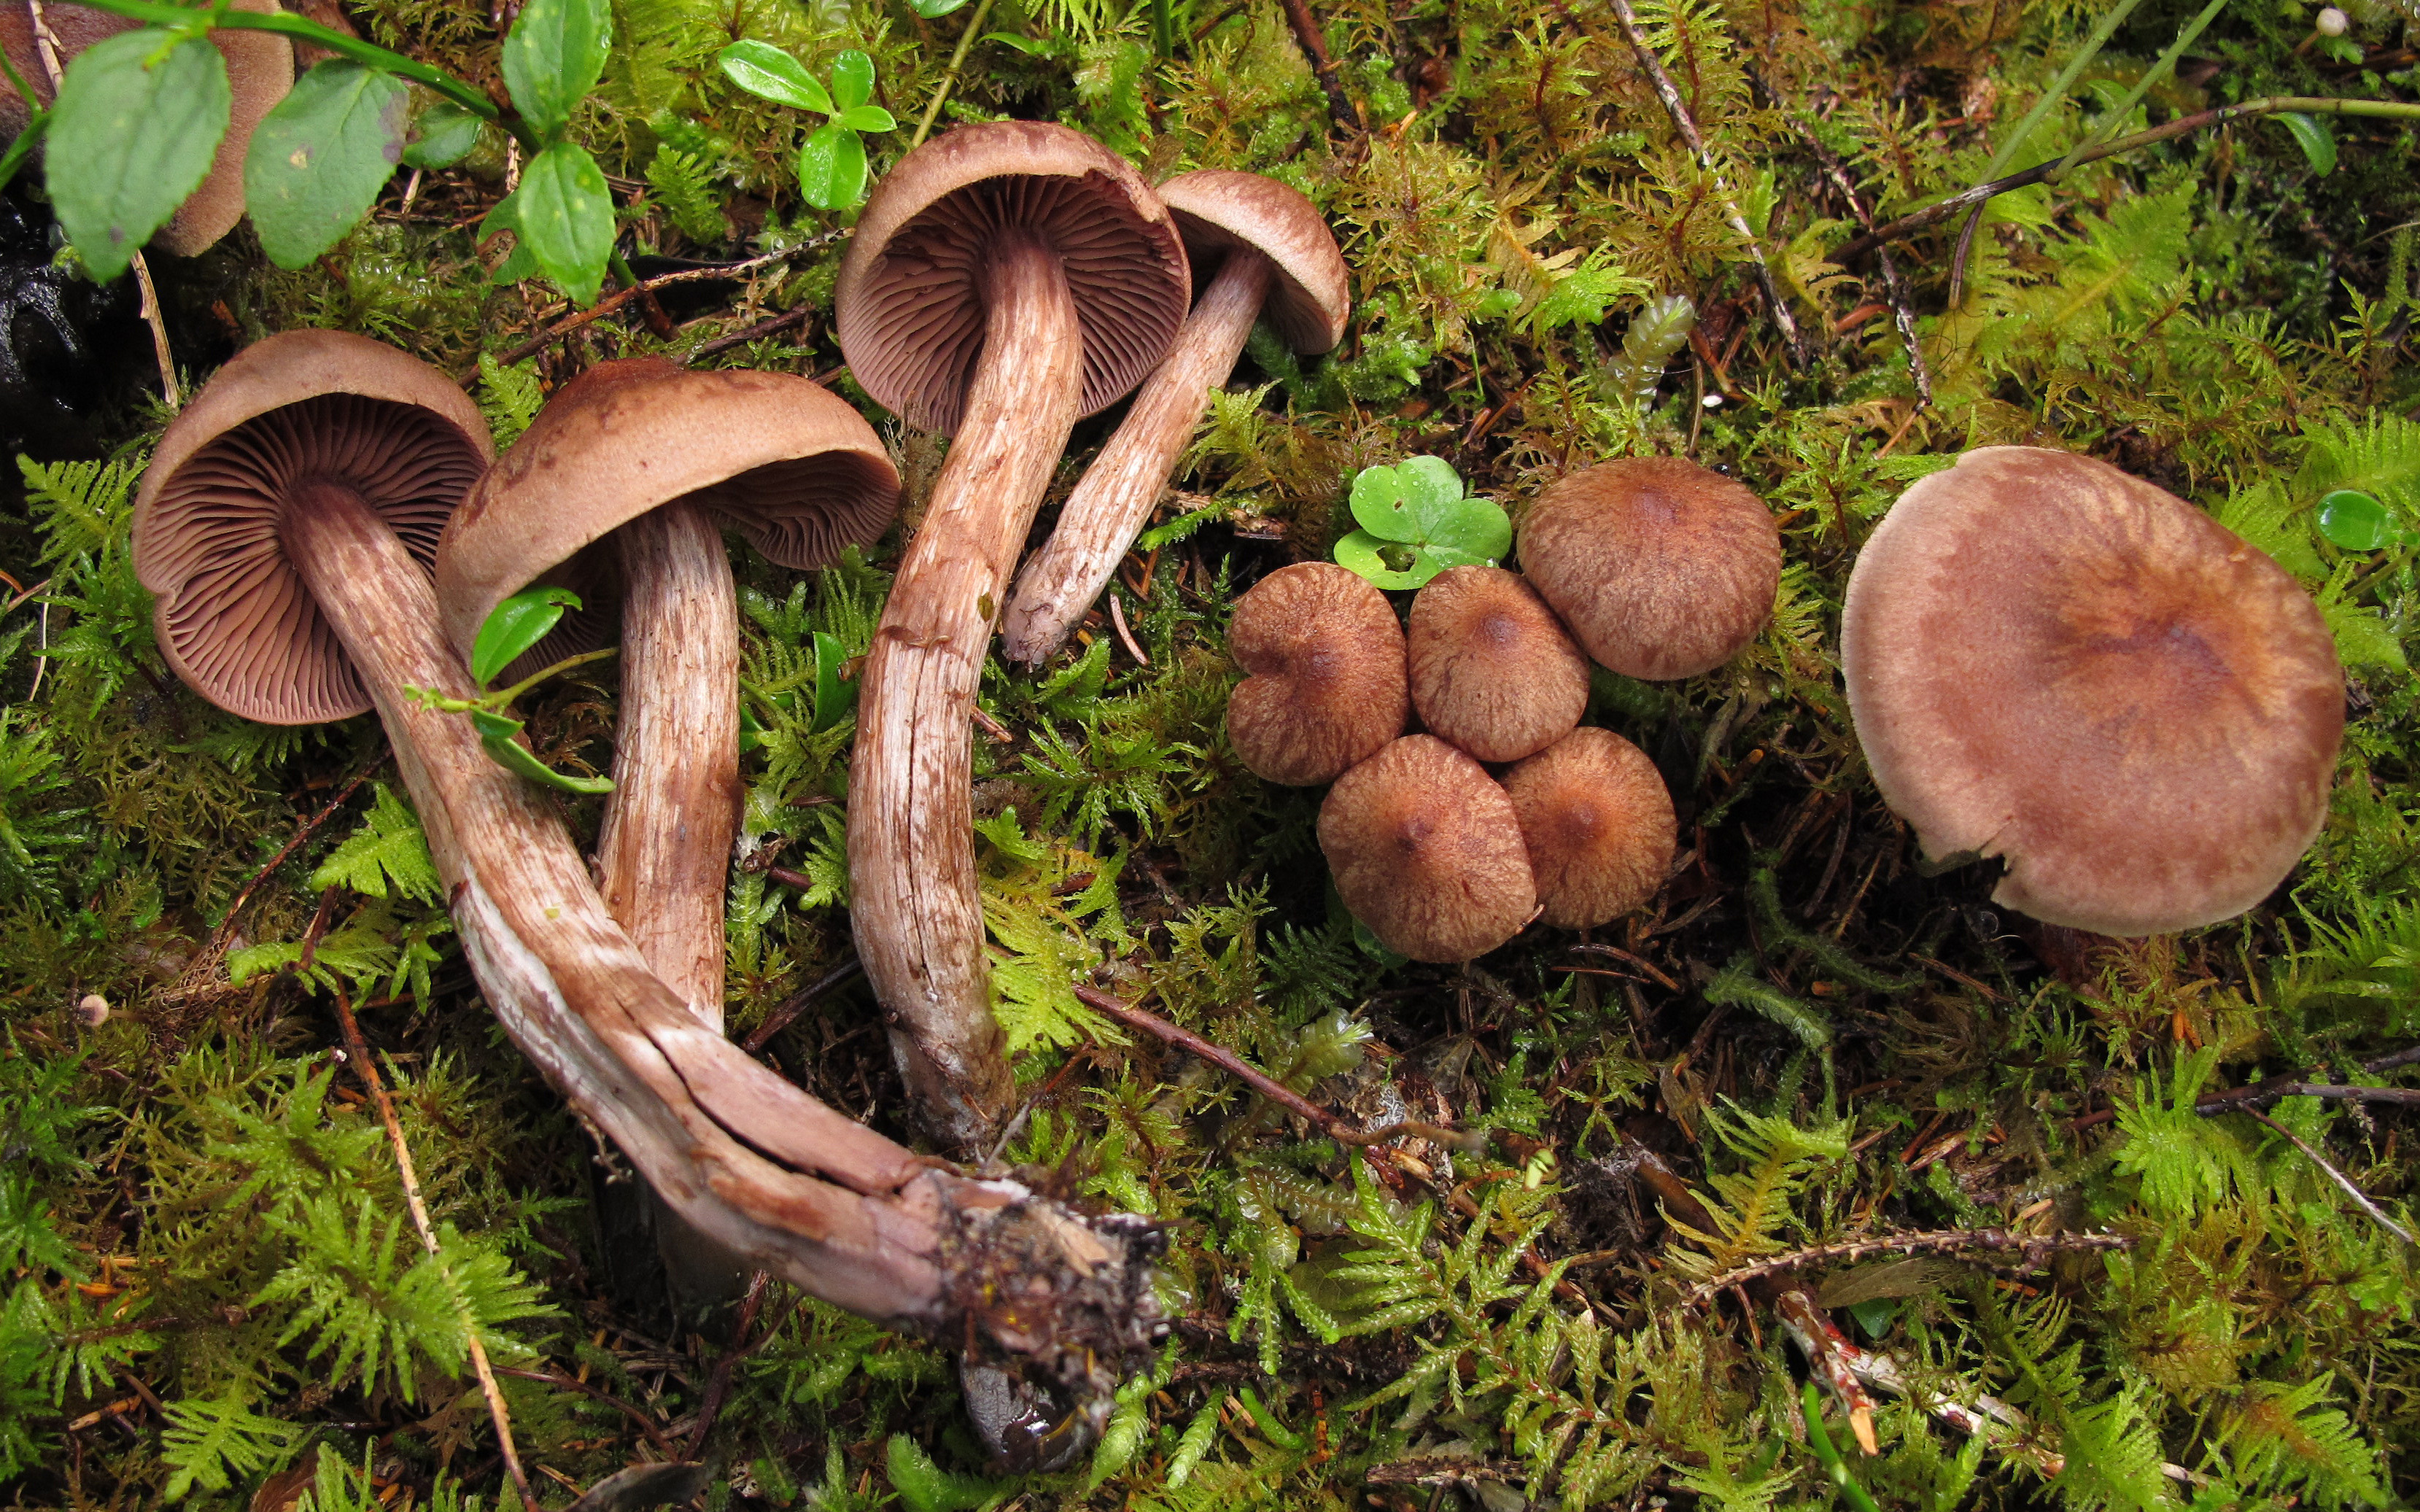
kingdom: Fungi
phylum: Basidiomycota
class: Agaricomycetes
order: Agaricales
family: Cortinariaceae
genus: Cortinarius
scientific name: Cortinarius brunneus
